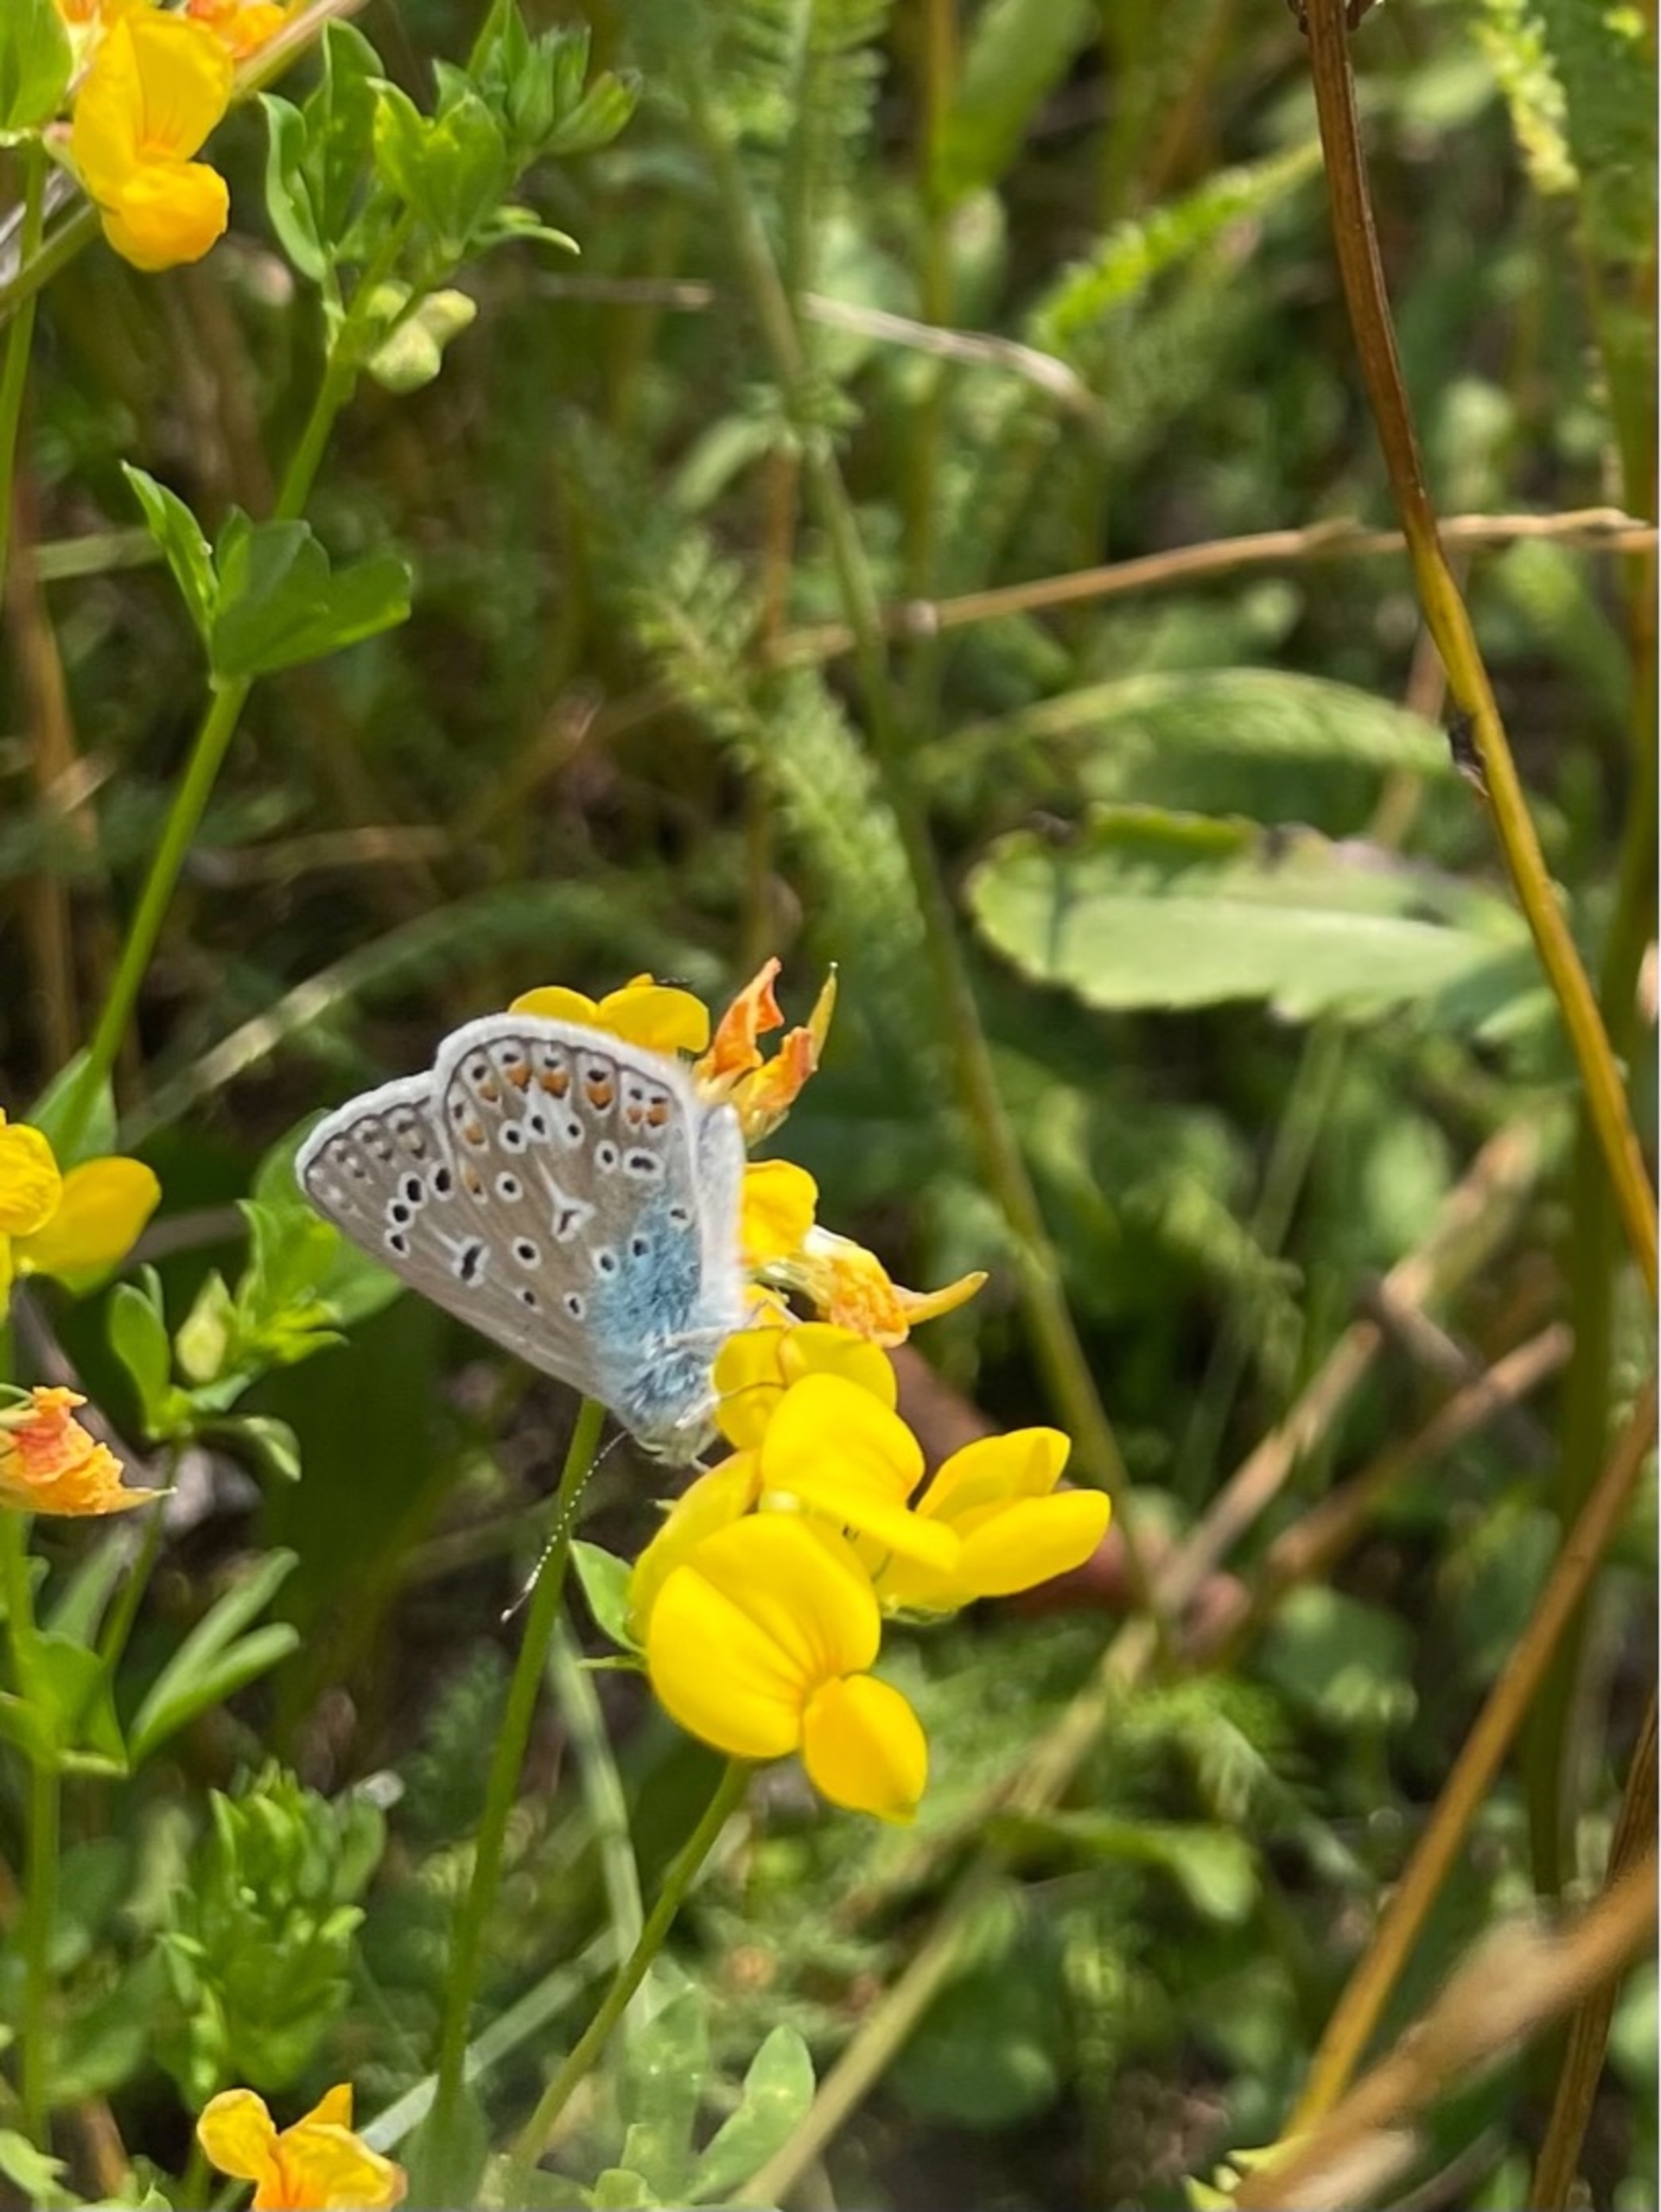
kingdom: Animalia
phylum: Arthropoda
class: Insecta
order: Lepidoptera
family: Lycaenidae
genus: Polyommatus
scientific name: Polyommatus icarus
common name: Almindelig blåfugl
